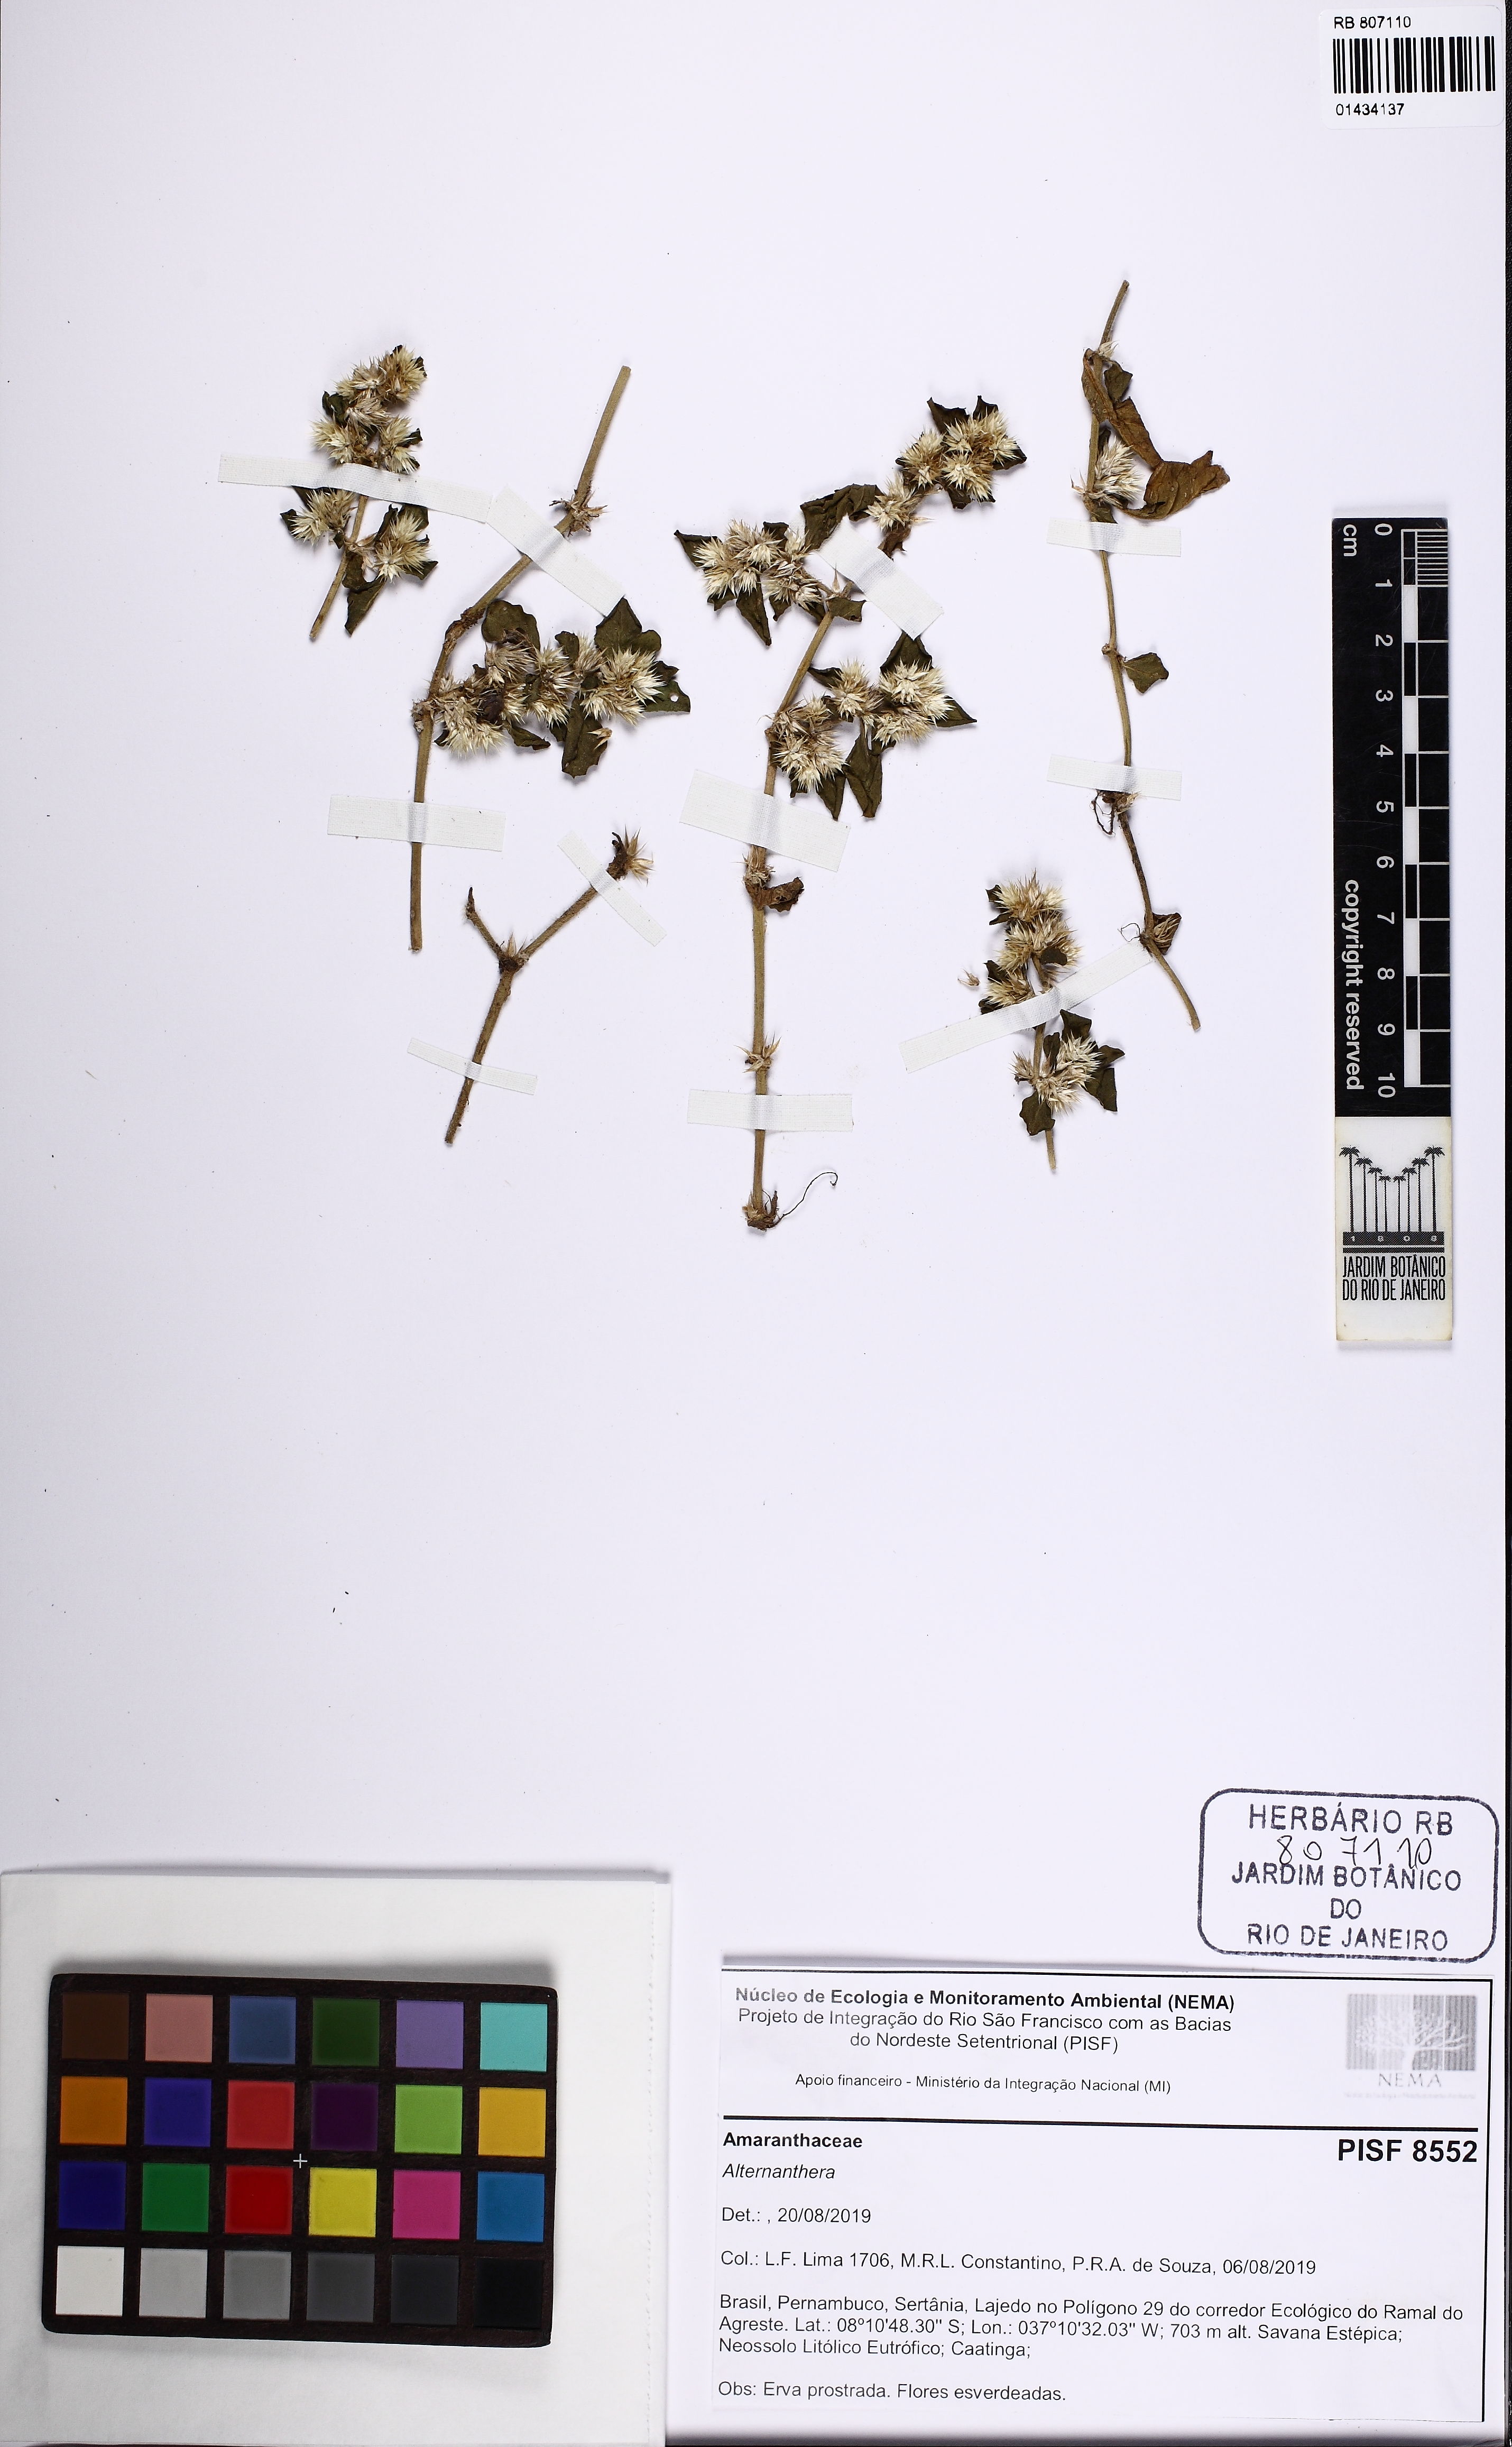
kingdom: Plantae
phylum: Tracheophyta
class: Magnoliopsida
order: Caryophyllales
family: Amaranthaceae
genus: Alternanthera
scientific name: Alternanthera
